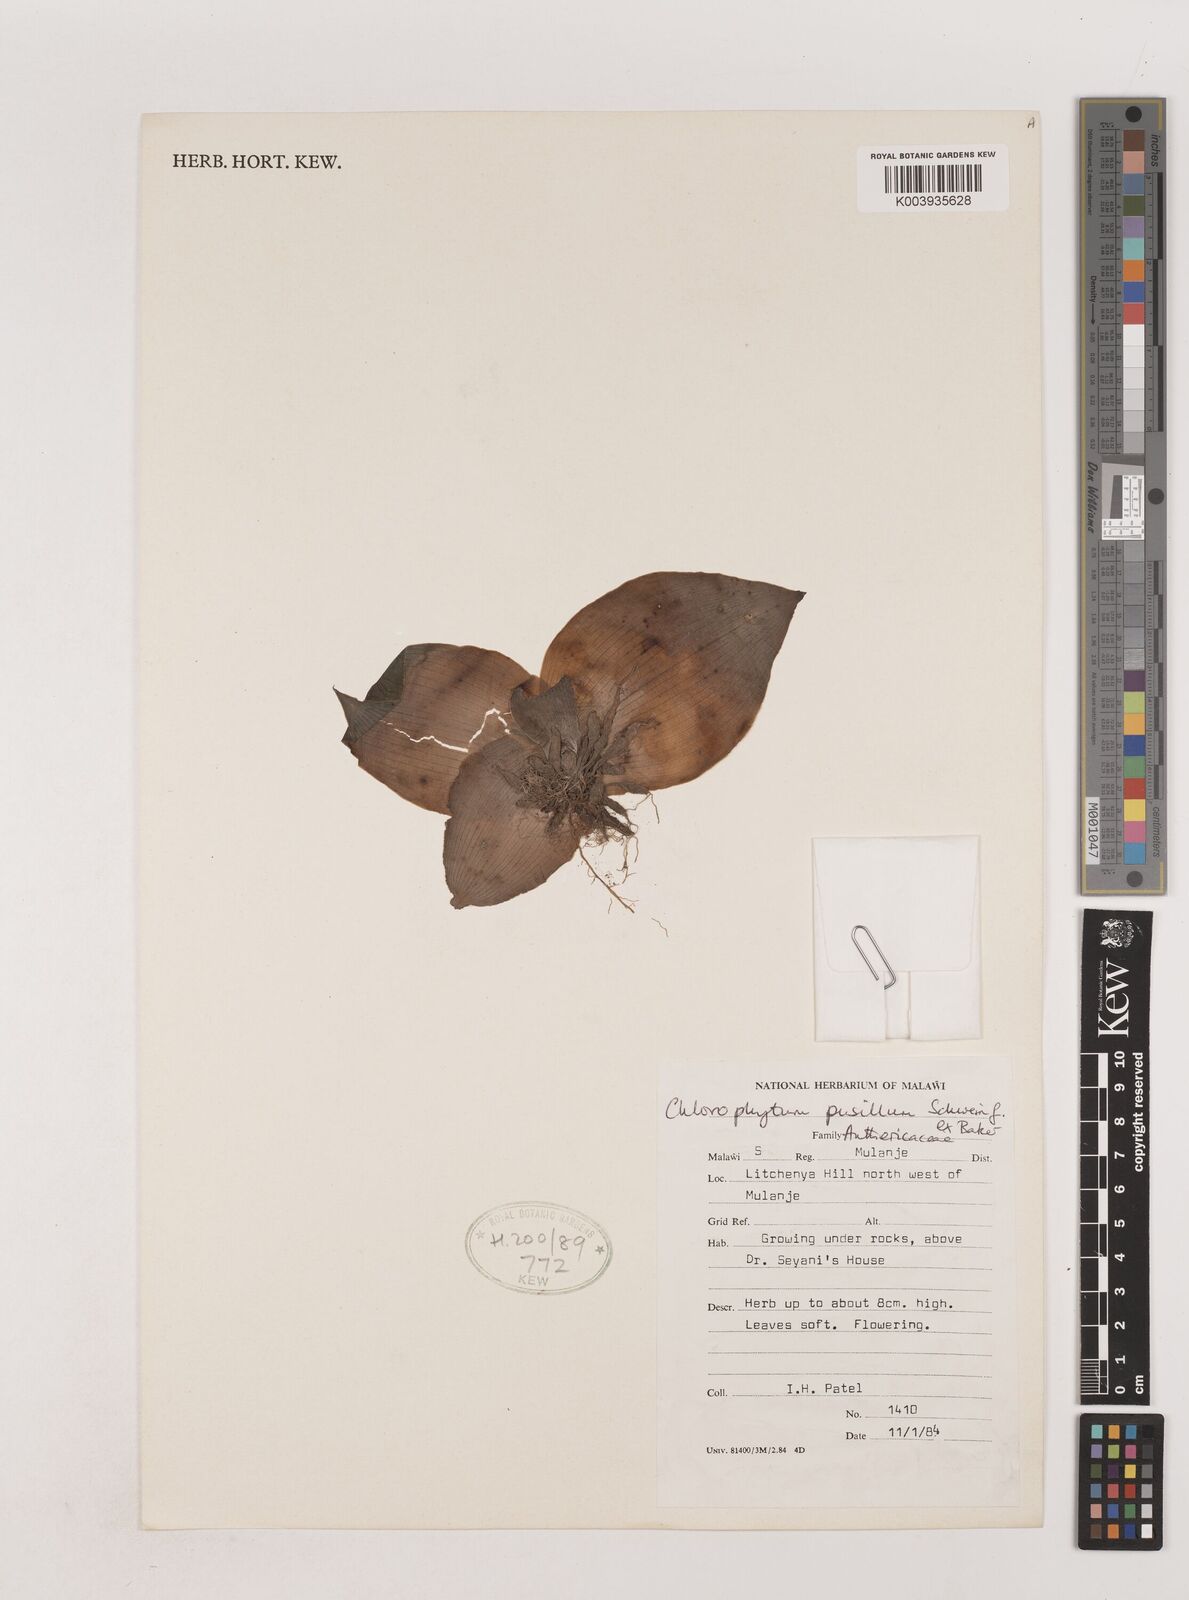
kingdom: Plantae
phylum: Tracheophyta
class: Liliopsida
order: Asparagales
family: Asparagaceae
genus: Chlorophytum
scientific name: Chlorophytum pusillum
